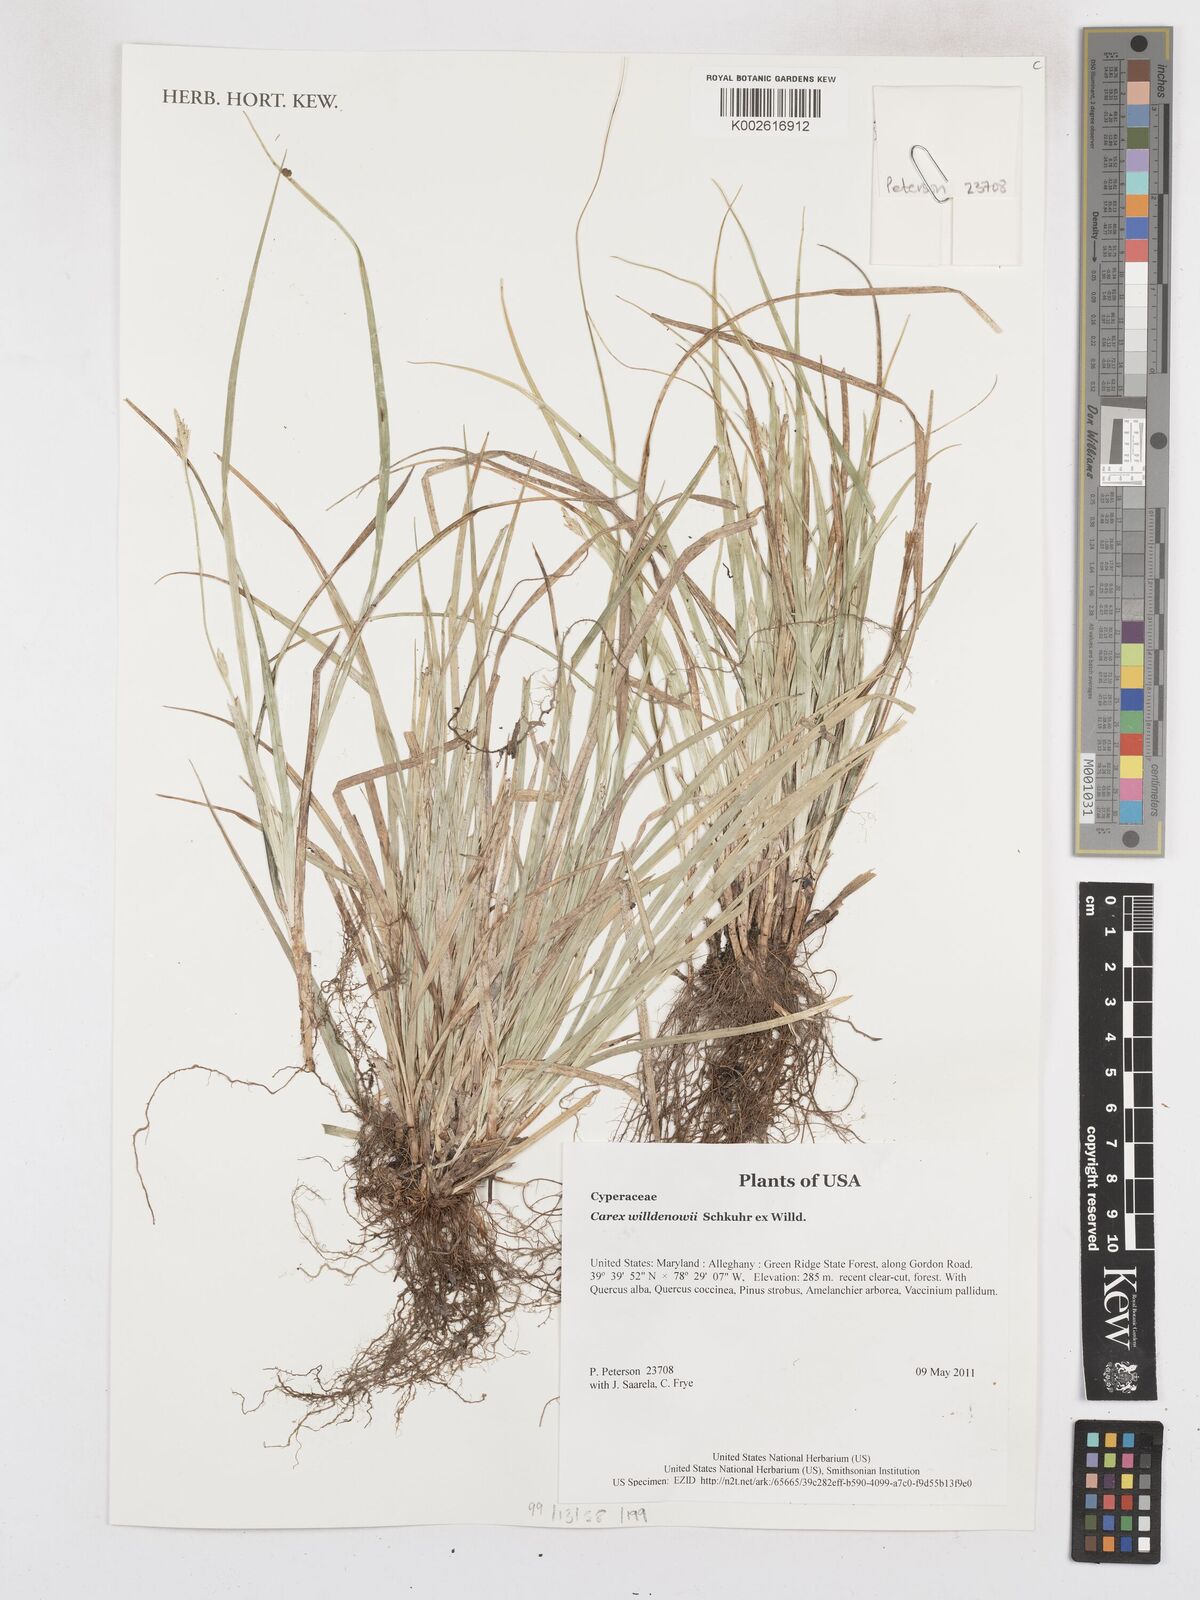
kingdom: Plantae
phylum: Tracheophyta
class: Liliopsida
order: Poales
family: Cyperaceae
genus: Carex
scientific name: Carex willdenowii
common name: Willdenow's sedge
